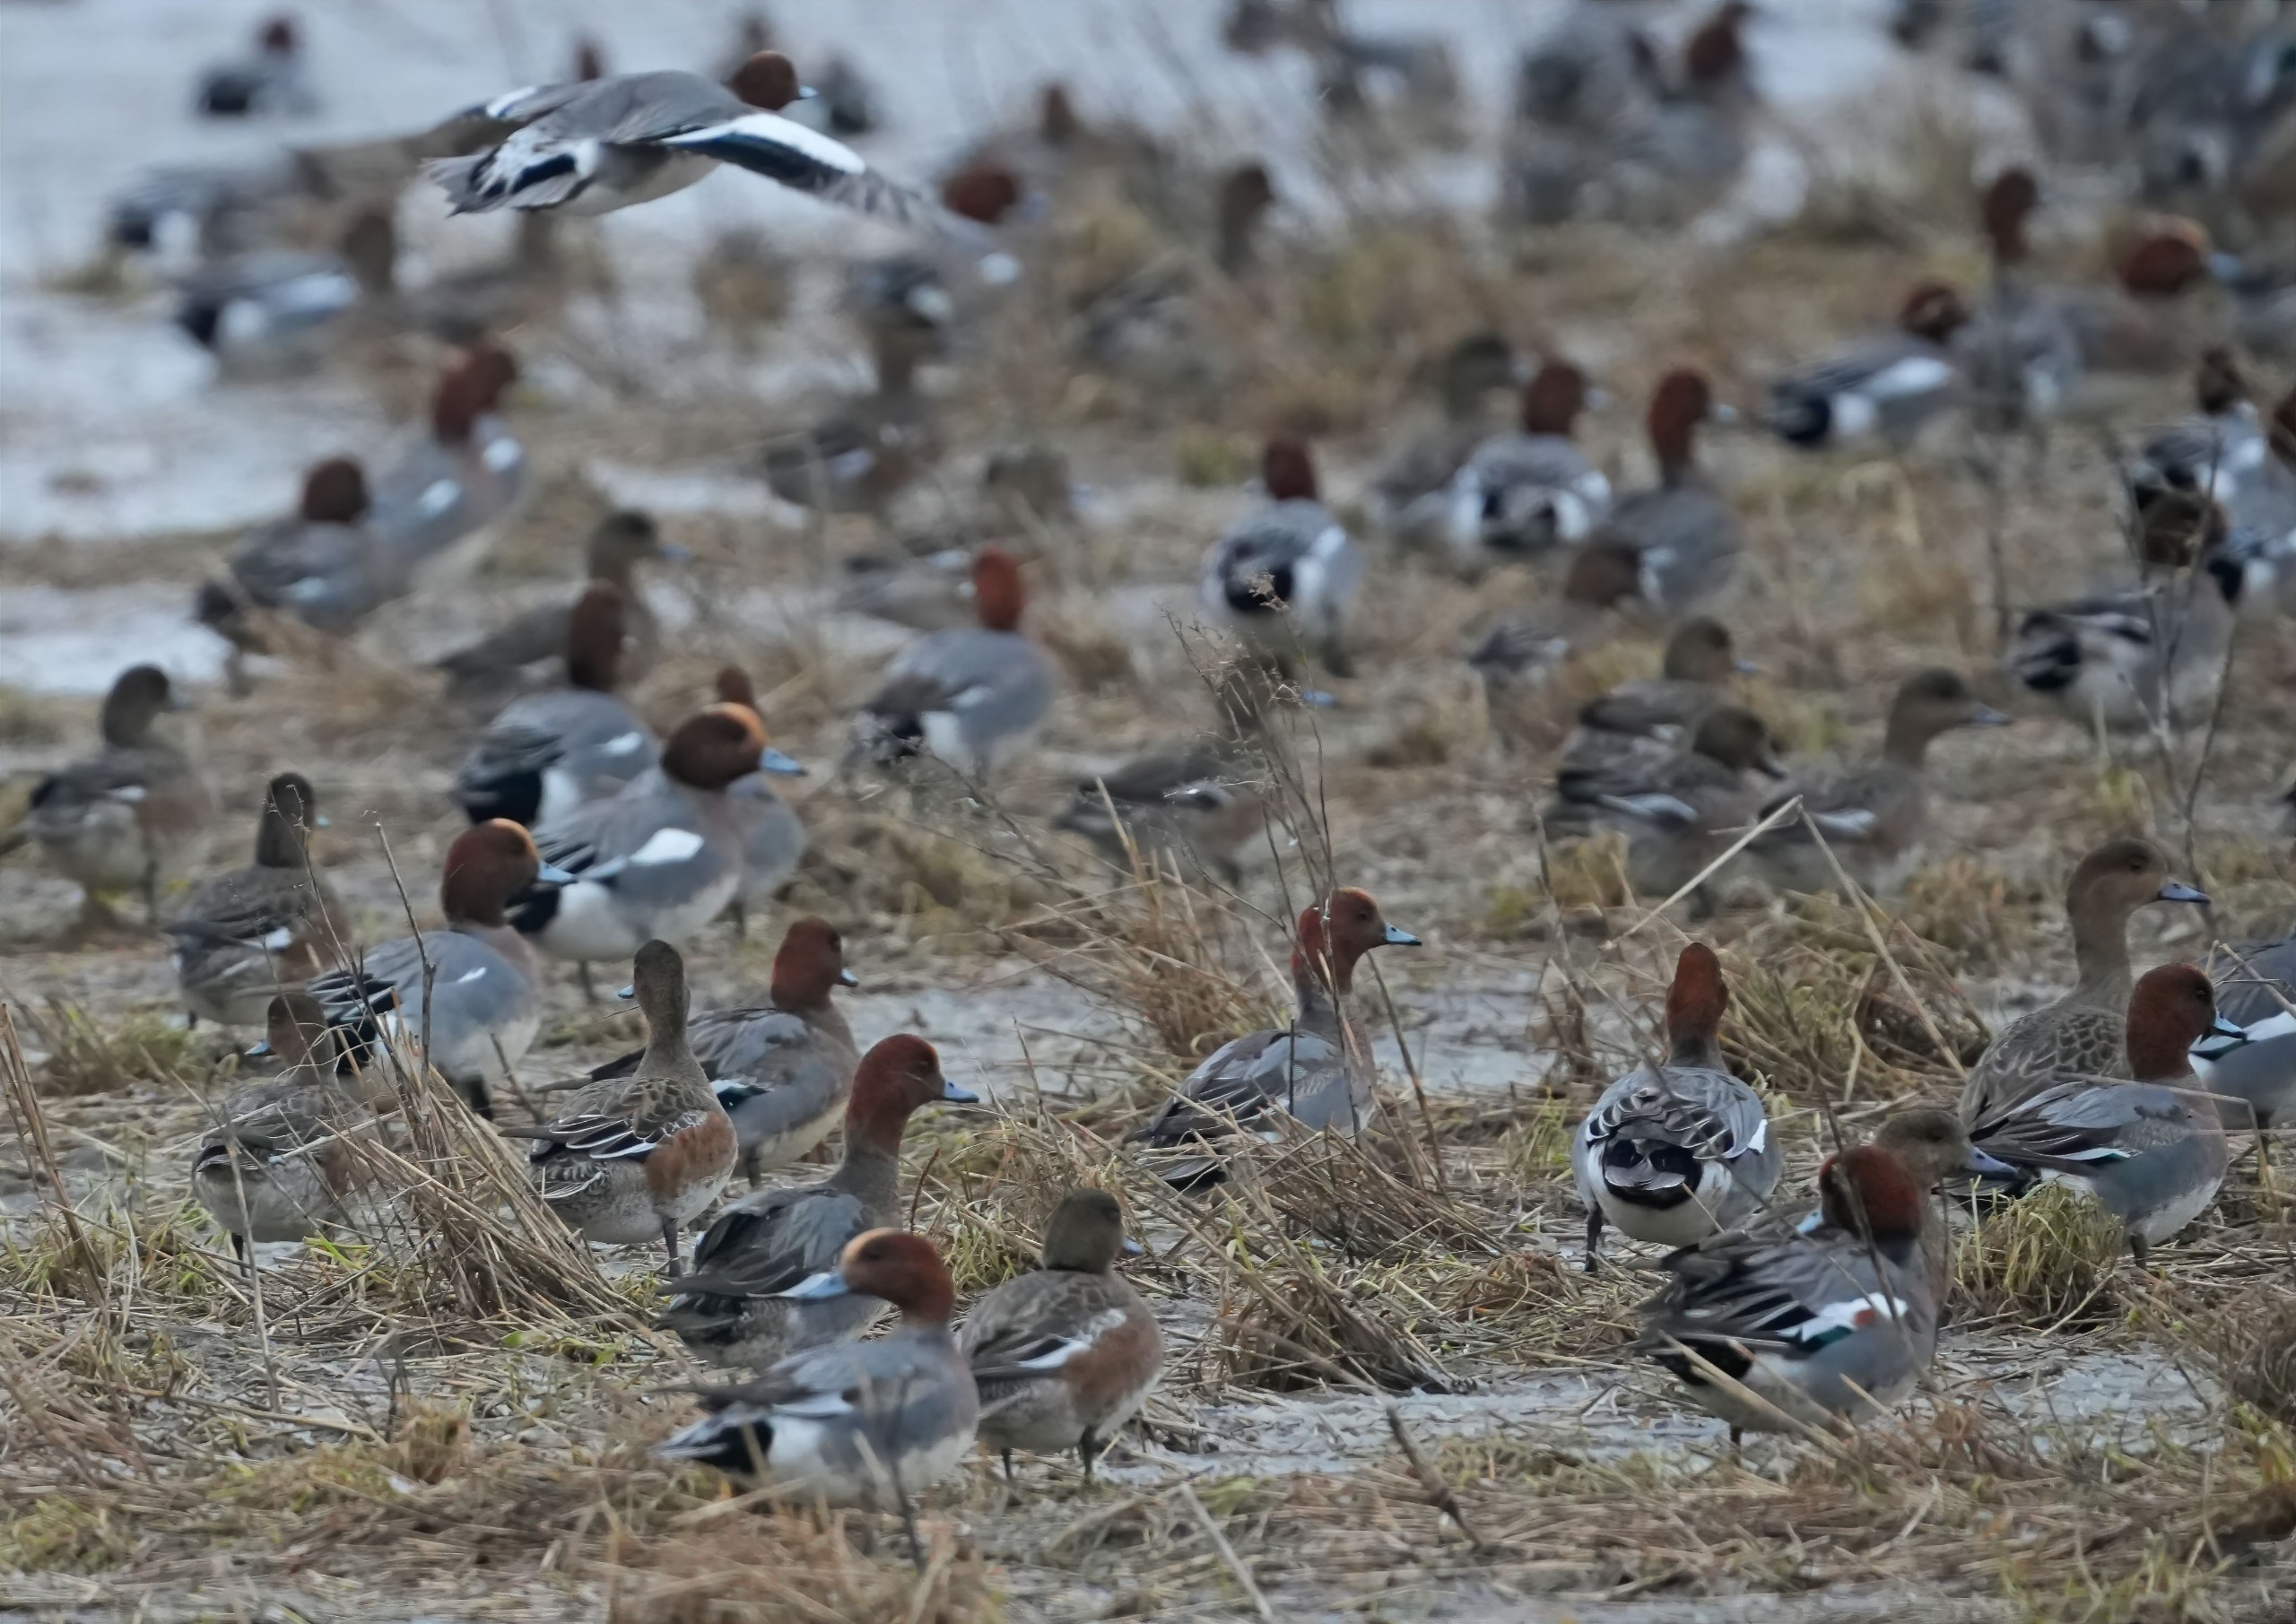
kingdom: Animalia
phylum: Chordata
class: Aves
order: Anseriformes
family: Anatidae
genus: Mareca
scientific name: Mareca penelope
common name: Pibeand
